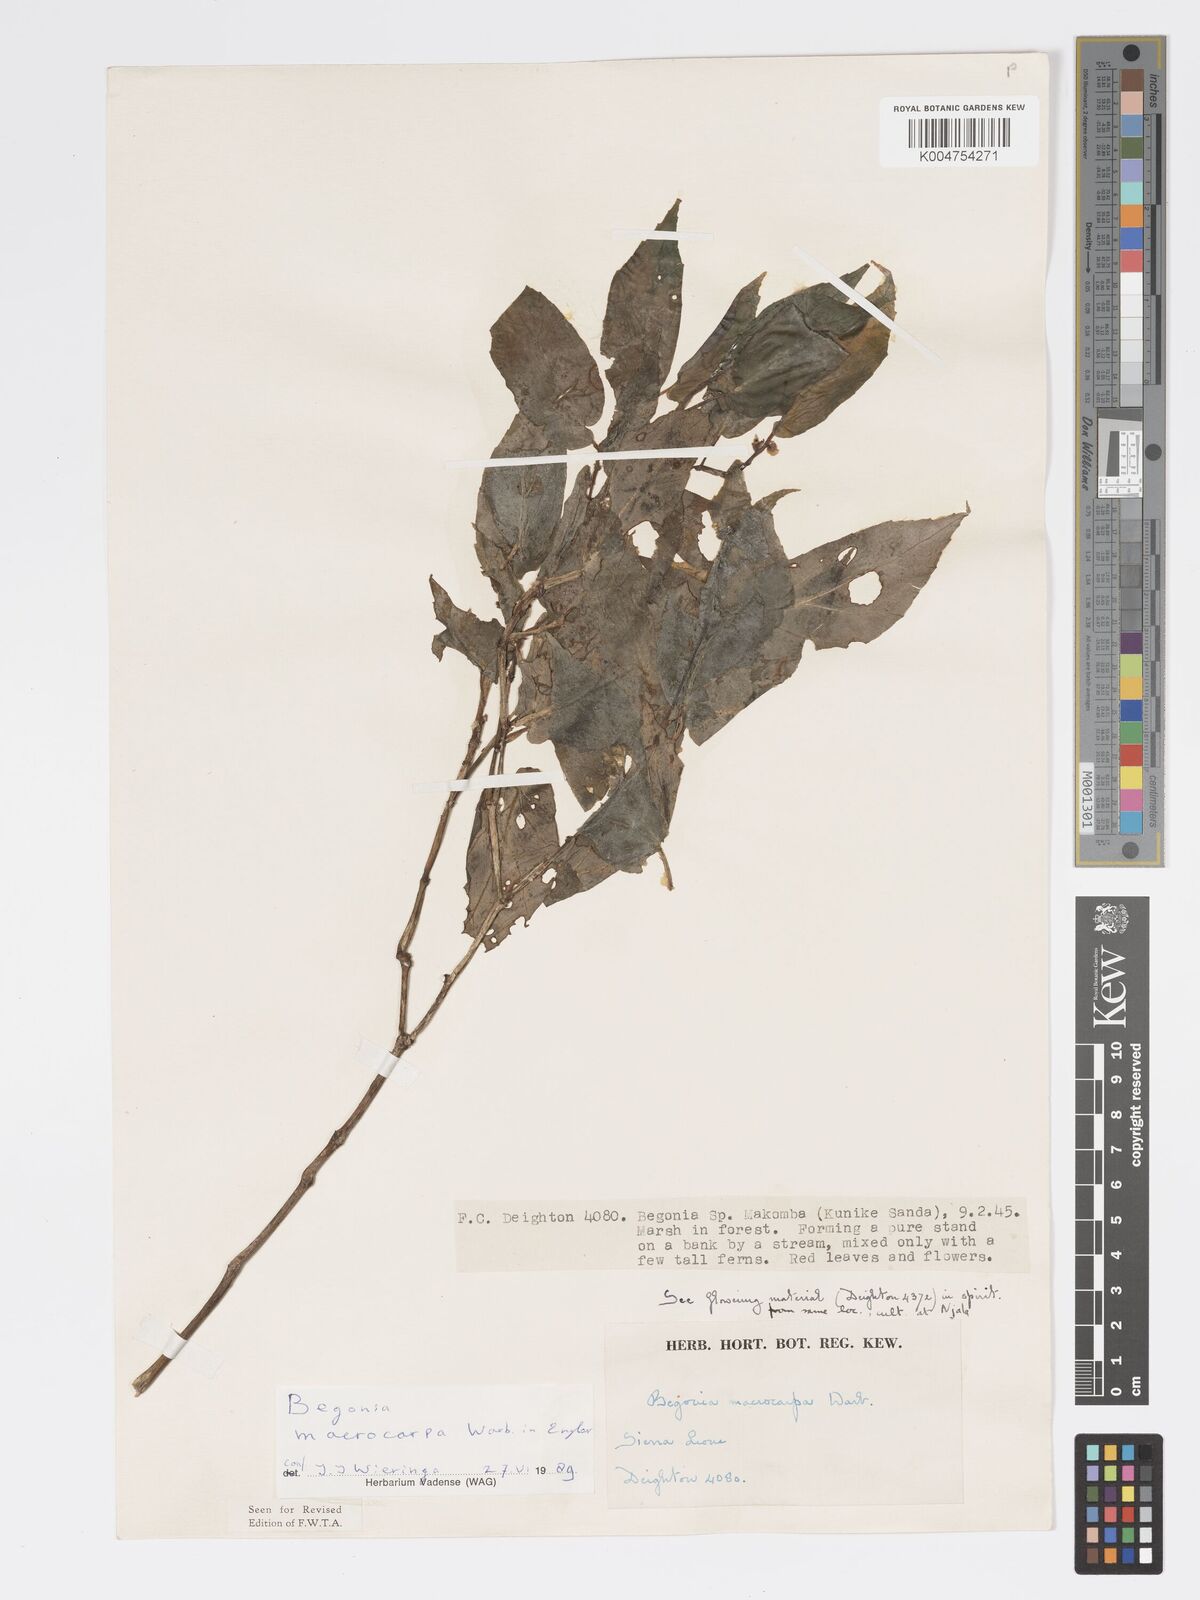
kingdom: Plantae
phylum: Tracheophyta
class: Magnoliopsida
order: Cucurbitales
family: Begoniaceae
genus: Begonia
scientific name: Begonia macrocarpa
